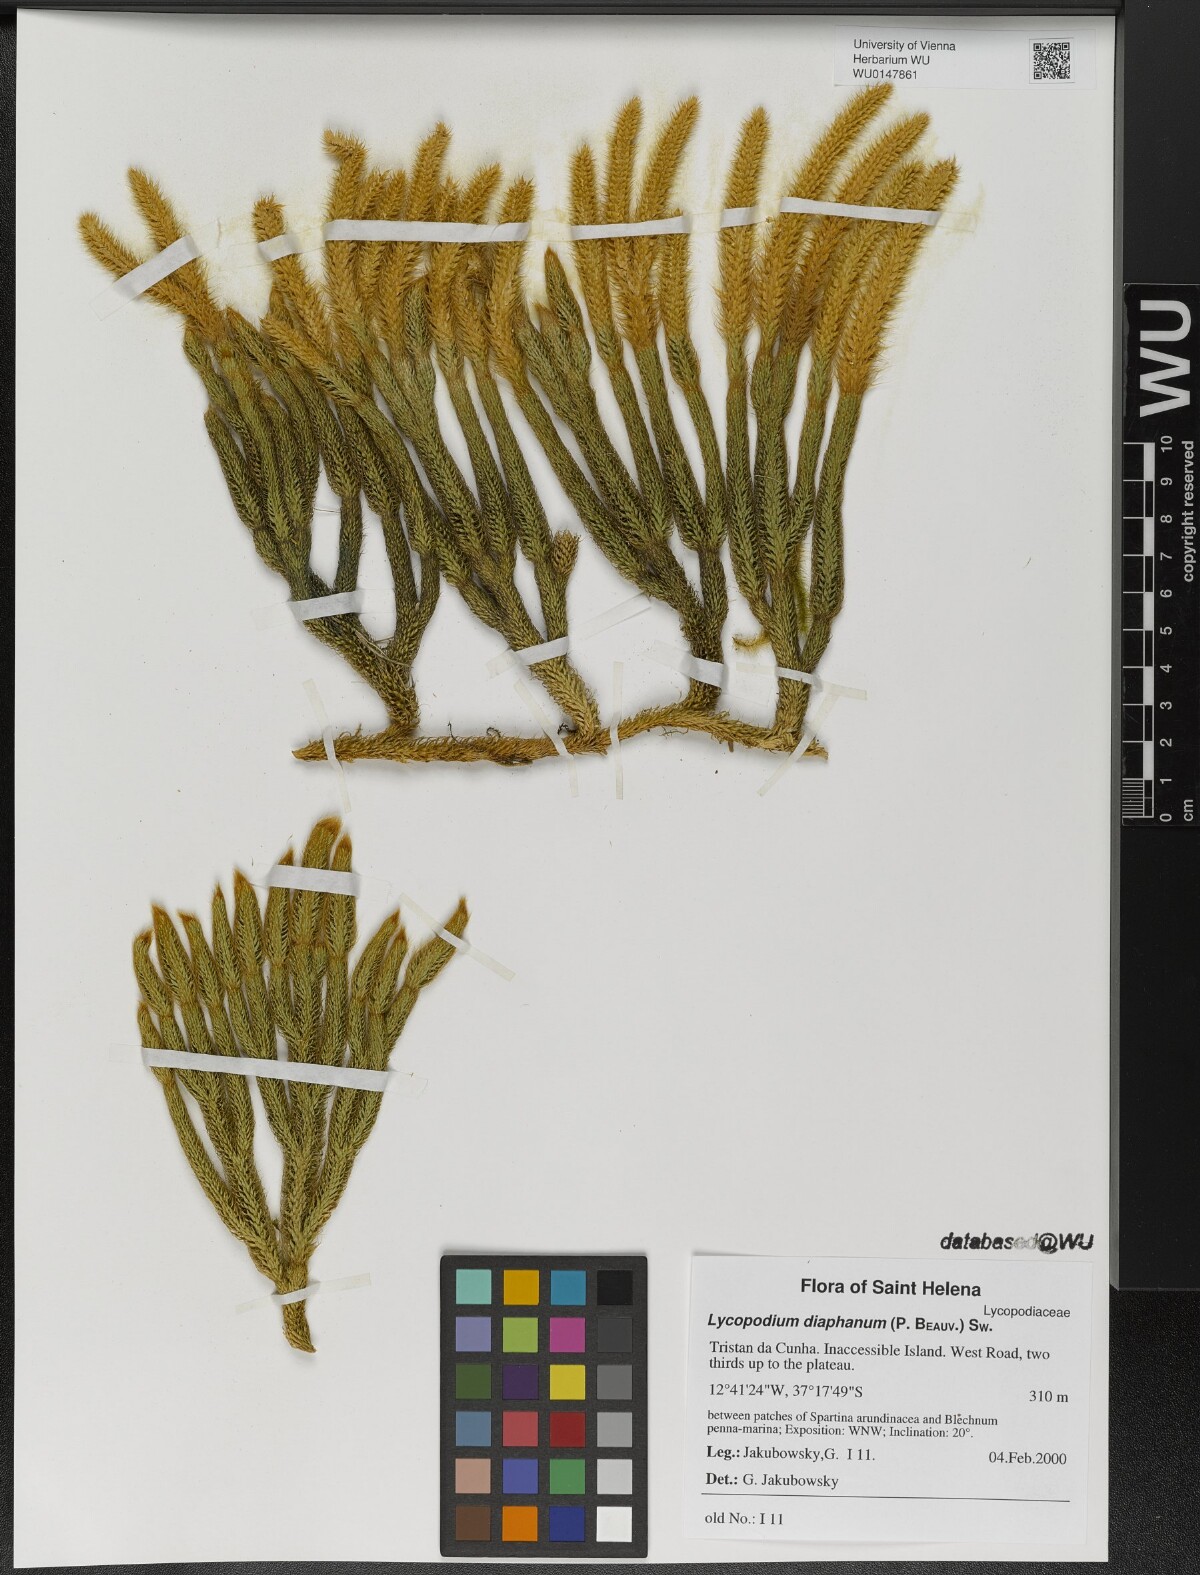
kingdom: Plantae
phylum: Tracheophyta
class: Lycopodiopsida
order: Lycopodiales
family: Lycopodiaceae
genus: Lycopodium
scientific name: Lycopodium diaphanum
